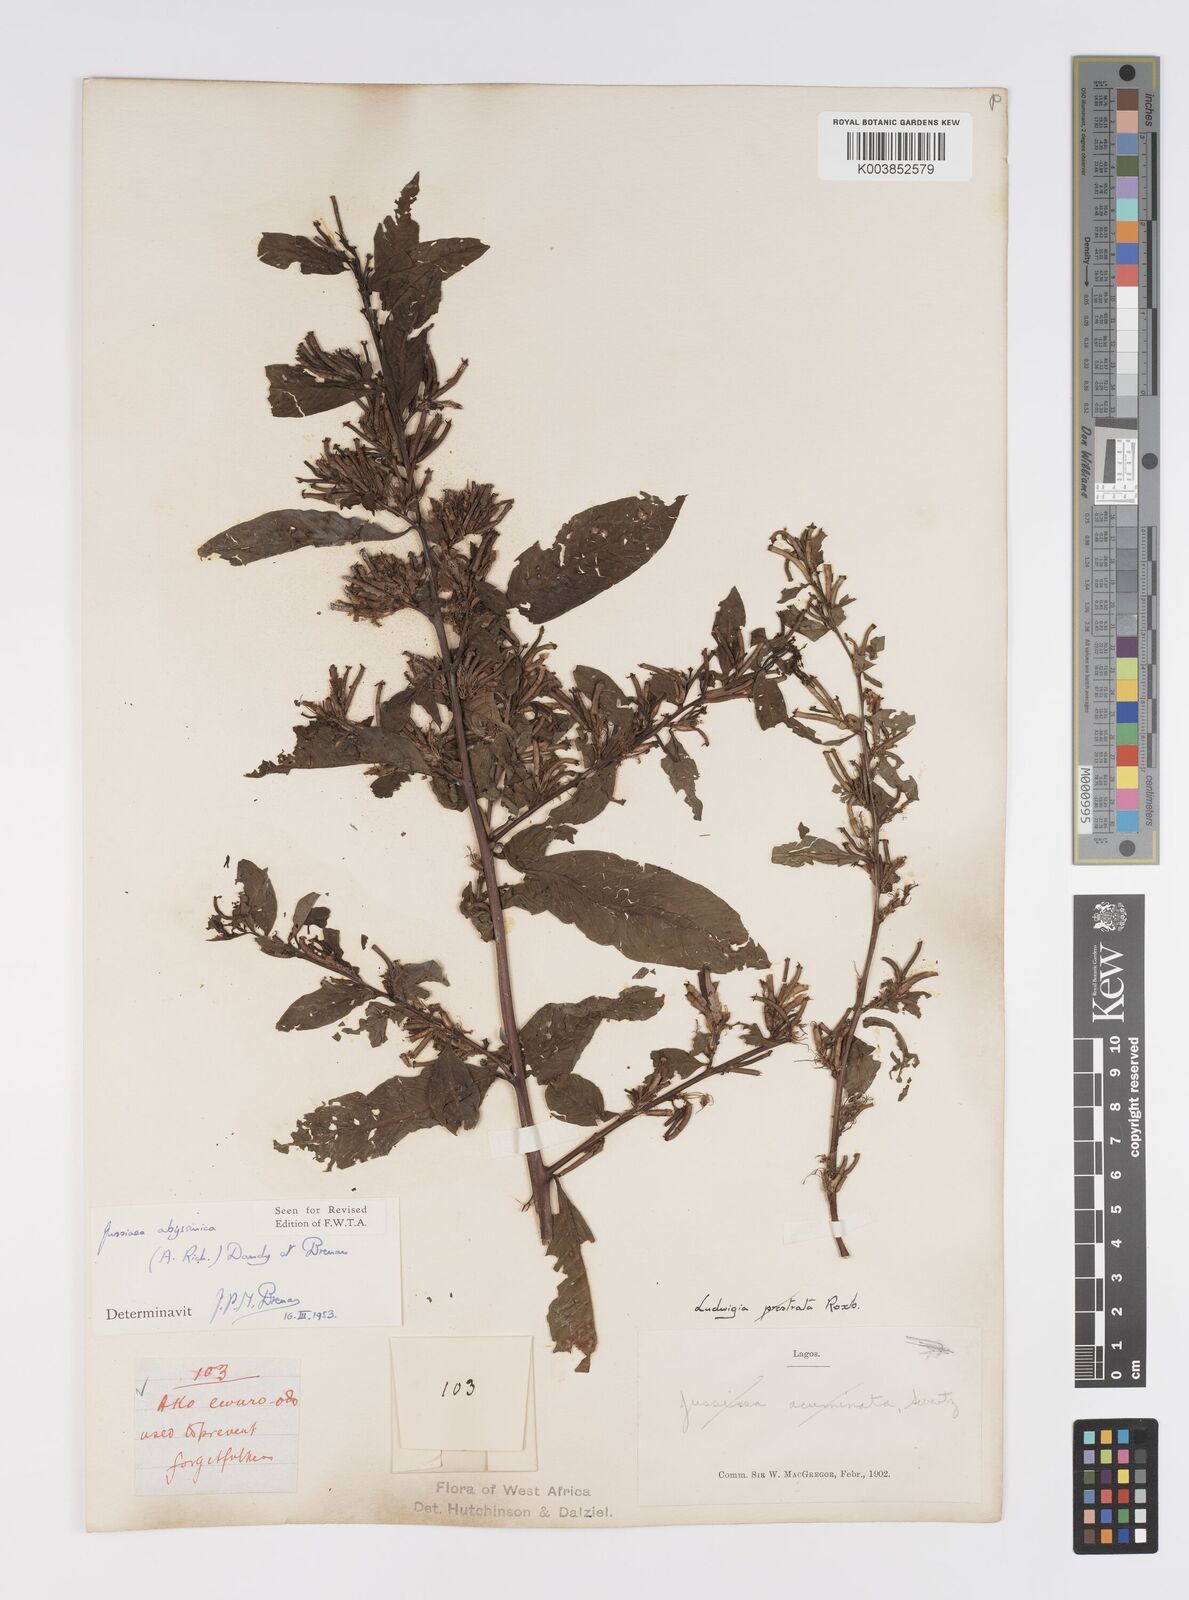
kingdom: Plantae
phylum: Tracheophyta
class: Magnoliopsida
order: Myrtales
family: Onagraceae
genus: Ludwigia
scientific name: Ludwigia abyssinica
